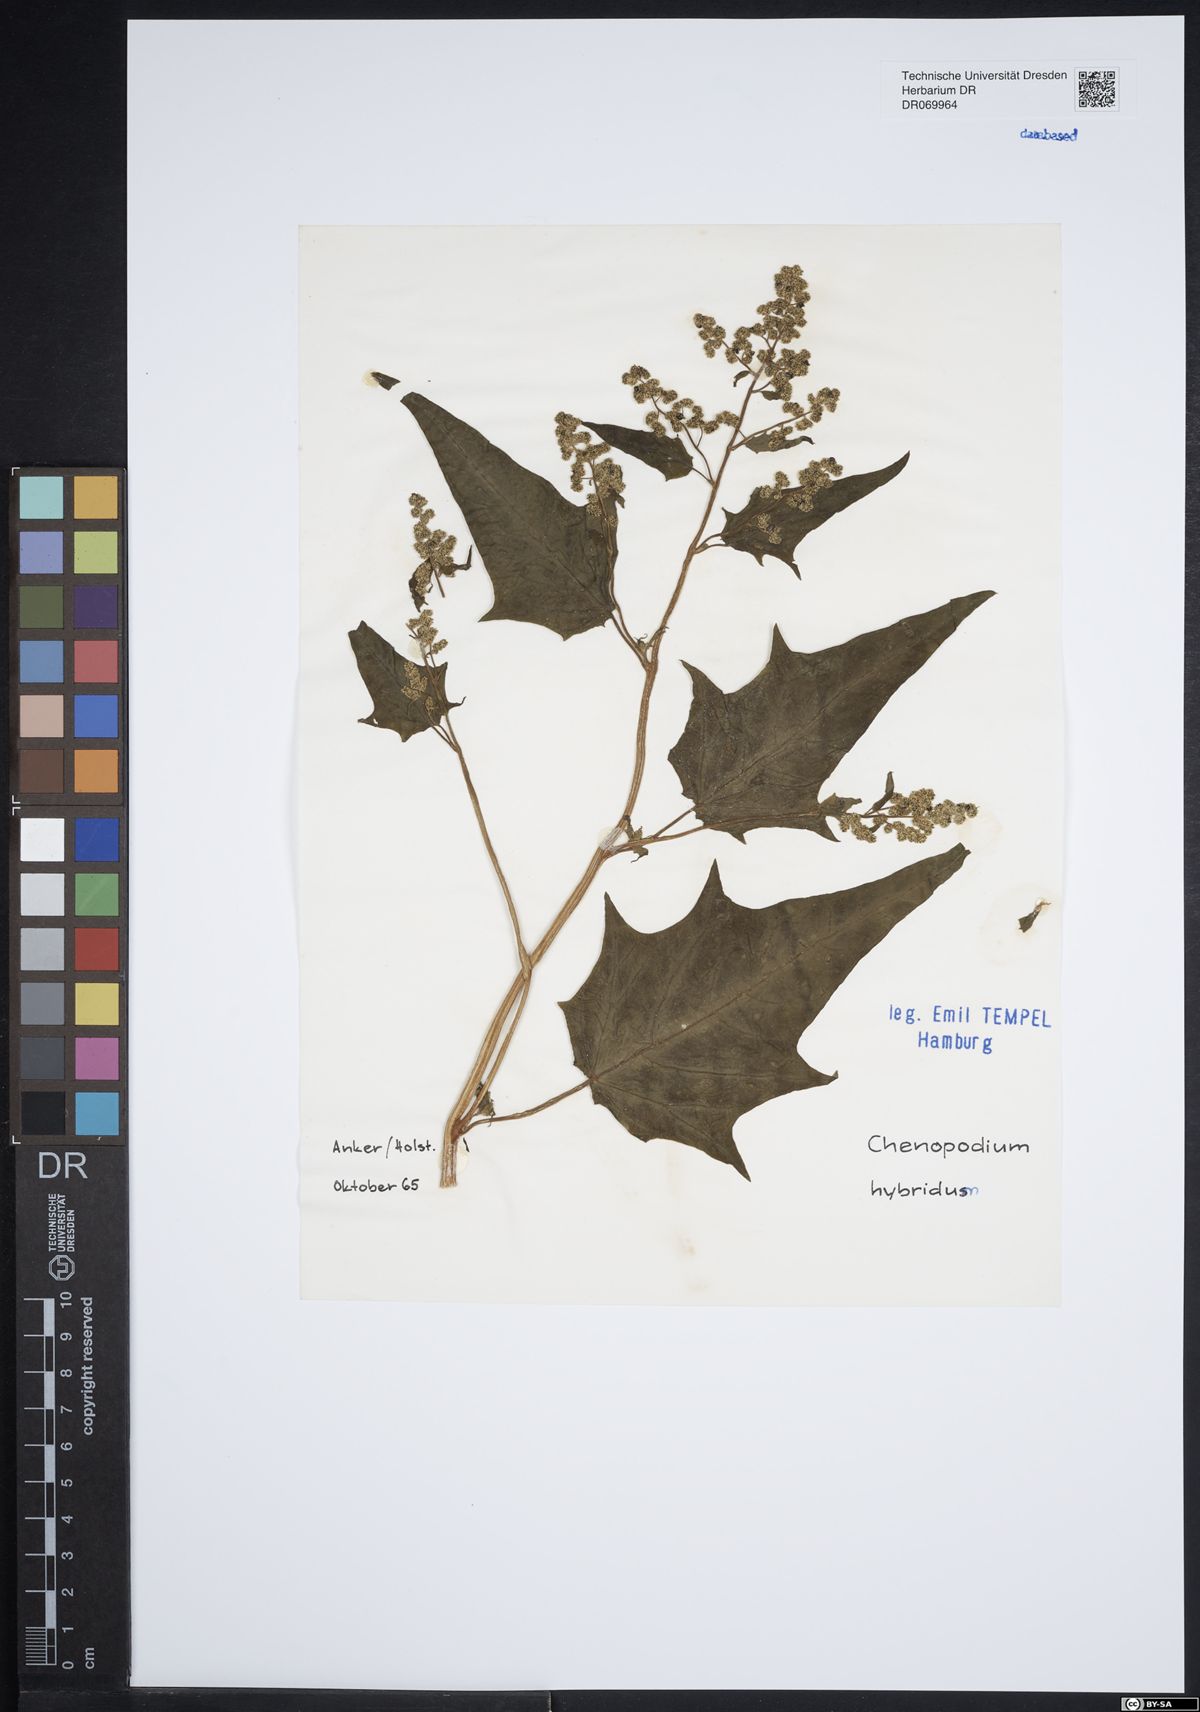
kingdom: Plantae
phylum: Tracheophyta
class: Magnoliopsida
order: Caryophyllales
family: Amaranthaceae
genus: Chenopodiastrum
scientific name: Chenopodiastrum hybridum
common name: Mapleleaf goosefoot
